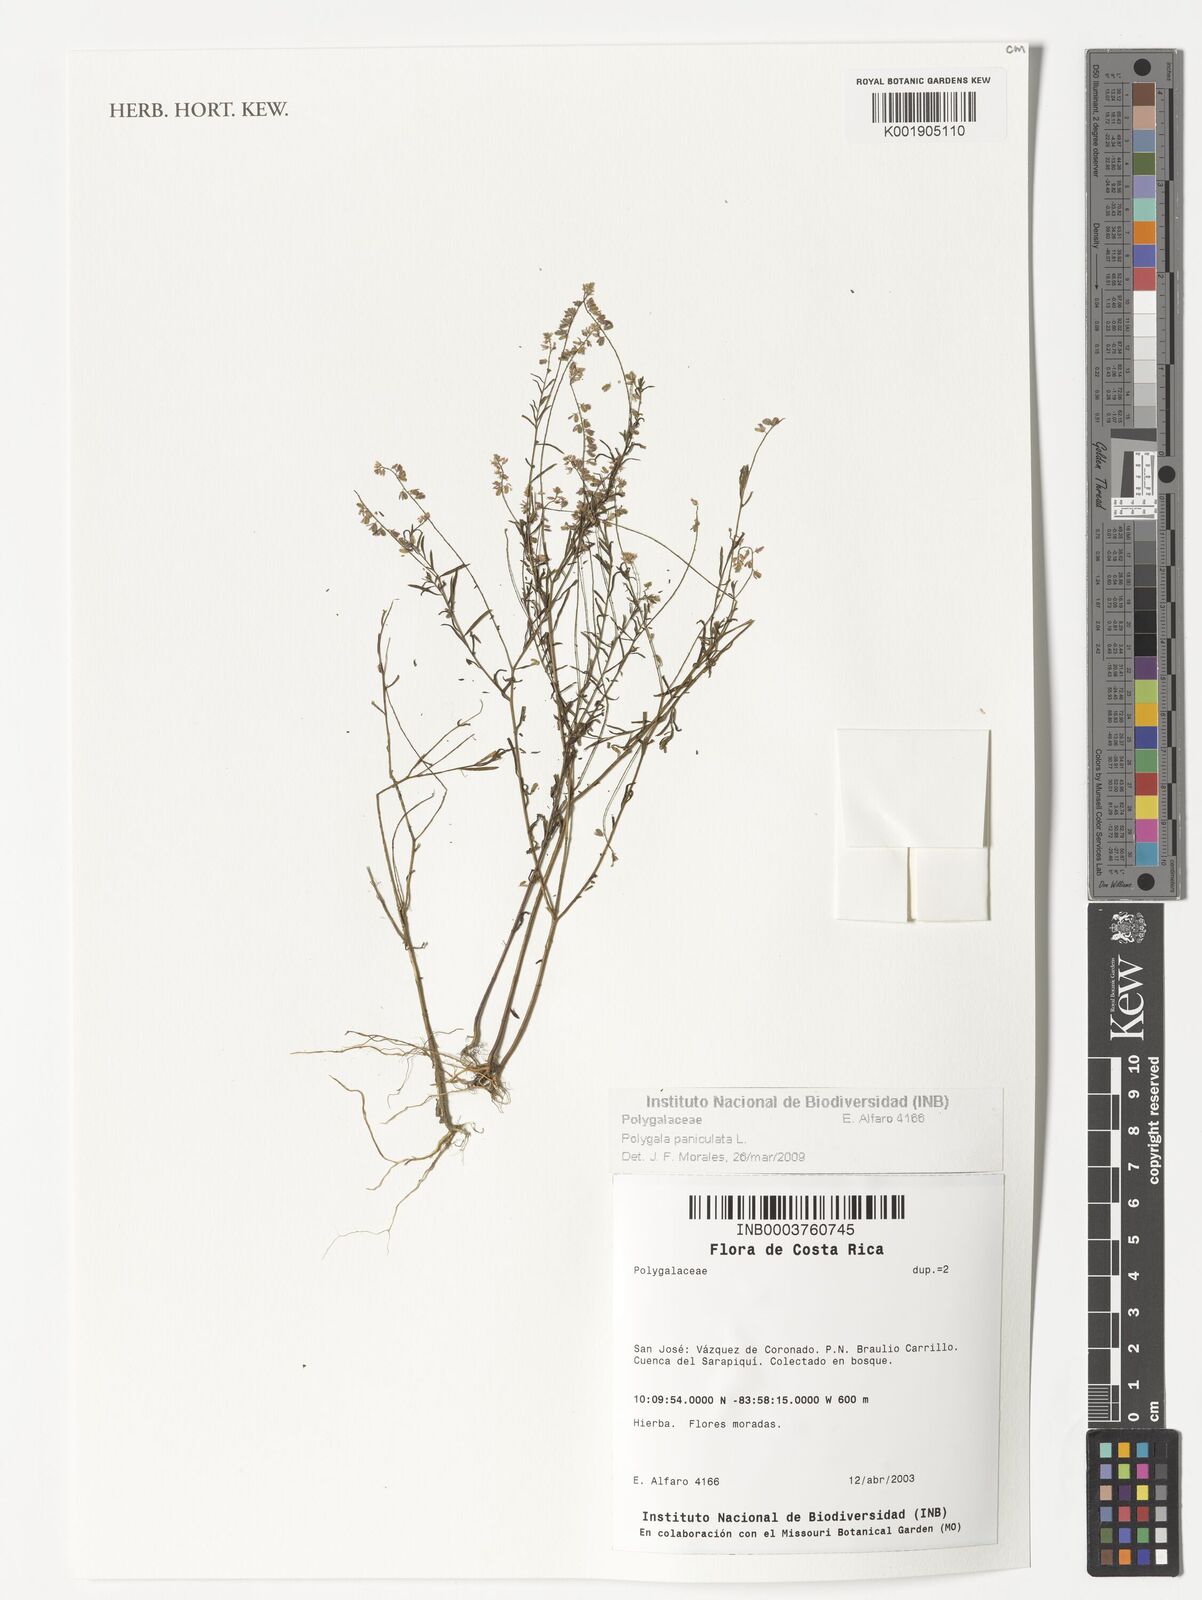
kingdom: Plantae
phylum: Tracheophyta
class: Magnoliopsida
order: Fabales
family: Polygalaceae
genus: Polygala
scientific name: Polygala paniculata
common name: Orosne
